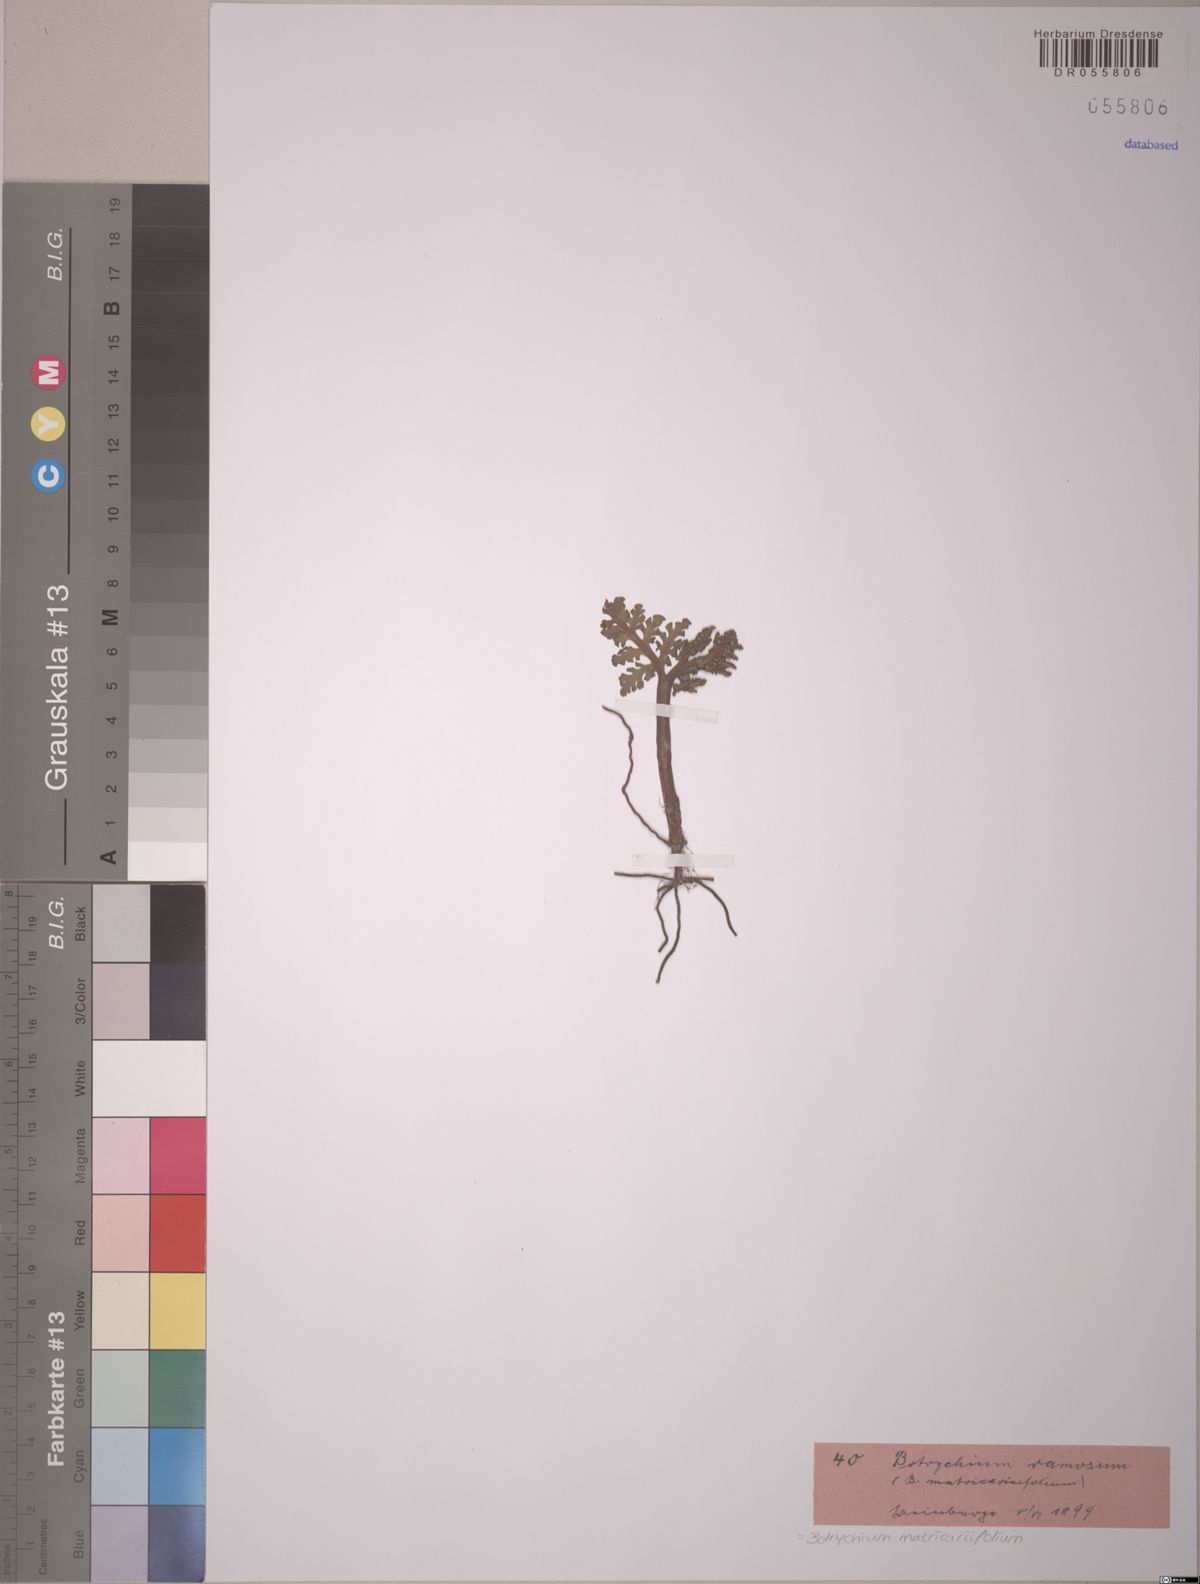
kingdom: Plantae
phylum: Tracheophyta
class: Polypodiopsida
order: Ophioglossales
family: Ophioglossaceae
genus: Botrychium
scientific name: Botrychium matricariifolium
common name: Branched moonwort
